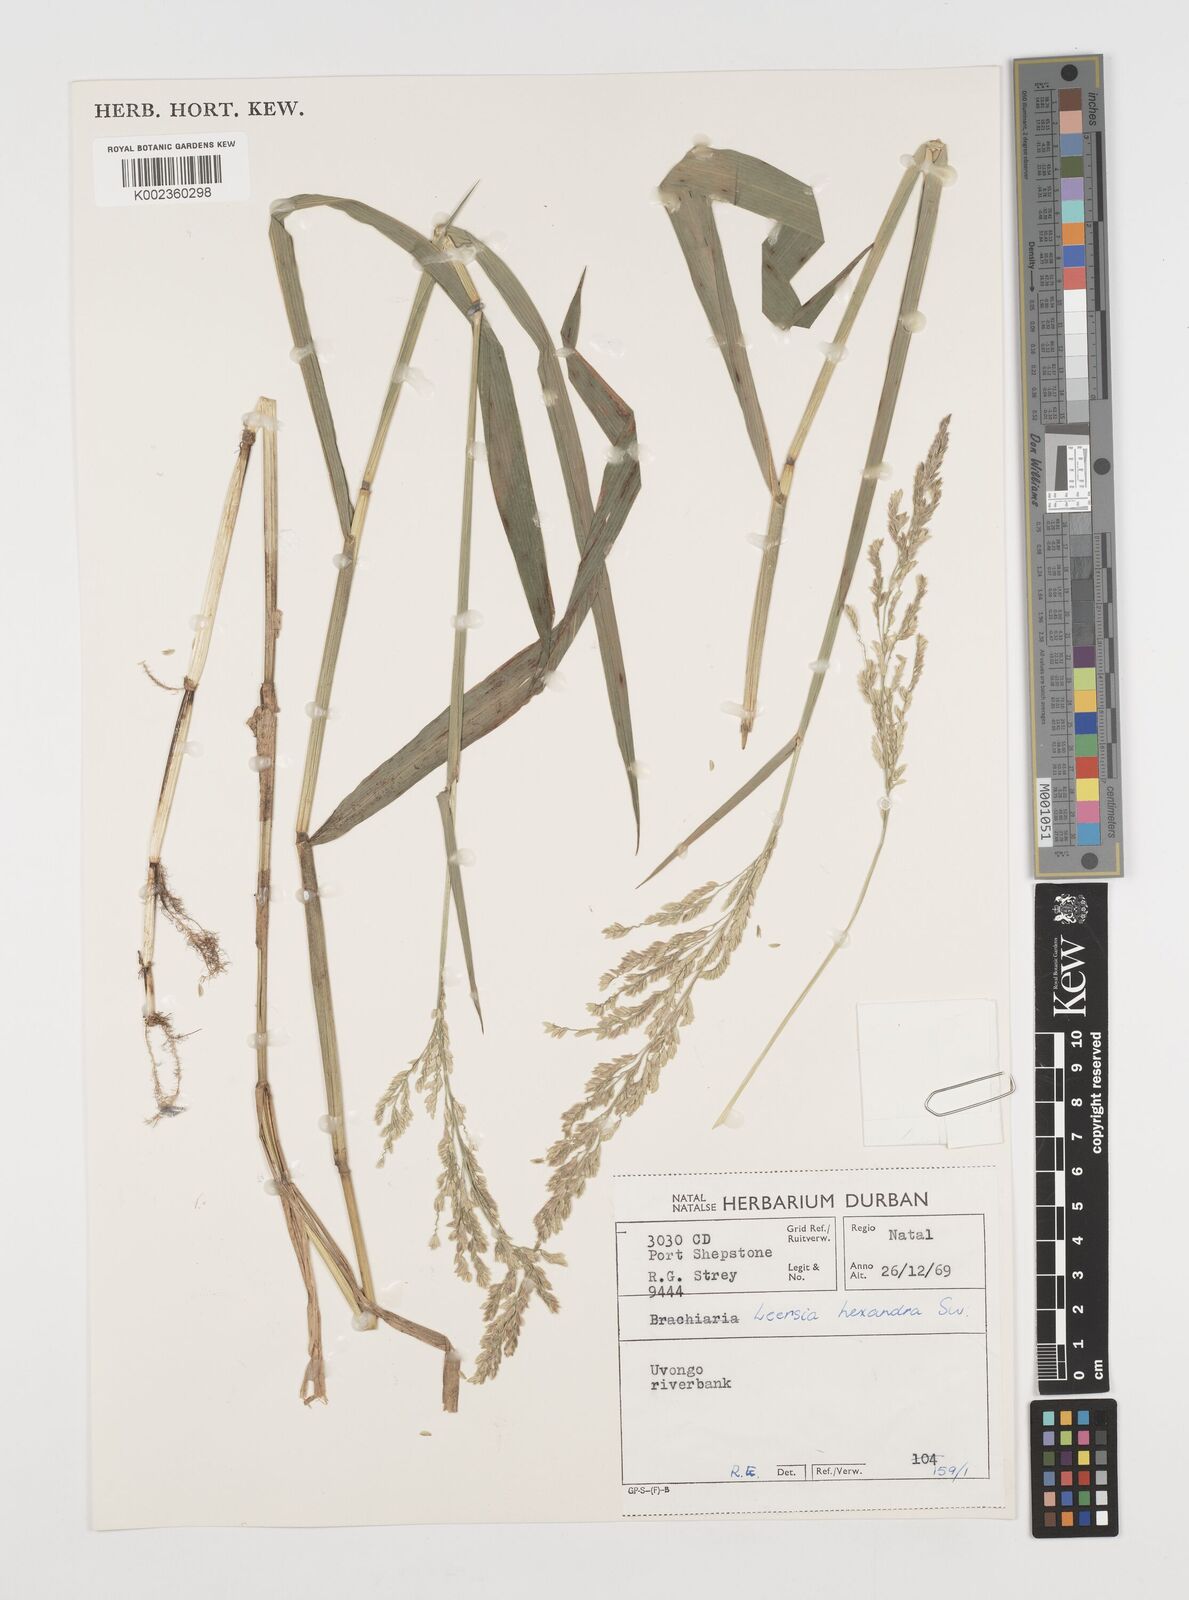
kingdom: Plantae
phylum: Tracheophyta
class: Liliopsida
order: Poales
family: Poaceae
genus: Leersia
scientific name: Leersia hexandra
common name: Southern cut grass
